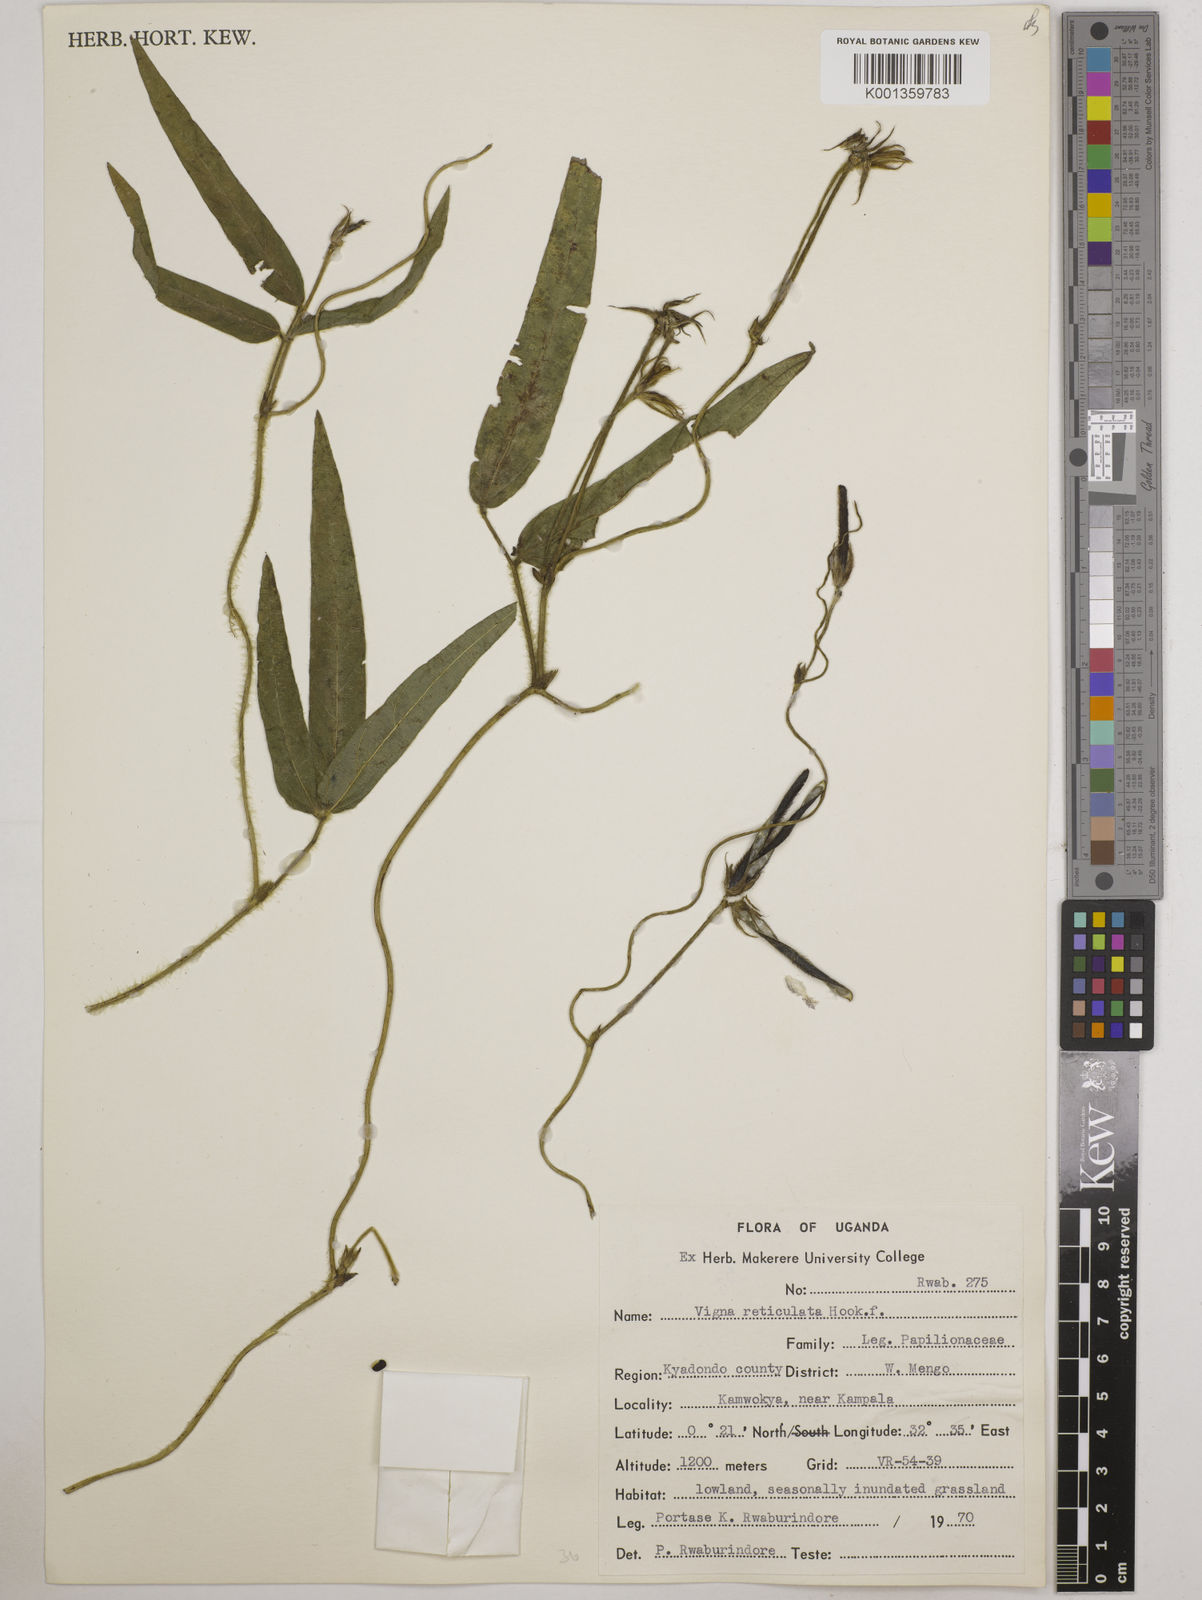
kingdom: Plantae
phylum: Tracheophyta
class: Magnoliopsida
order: Fabales
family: Fabaceae
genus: Vigna
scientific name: Vigna reticulata
